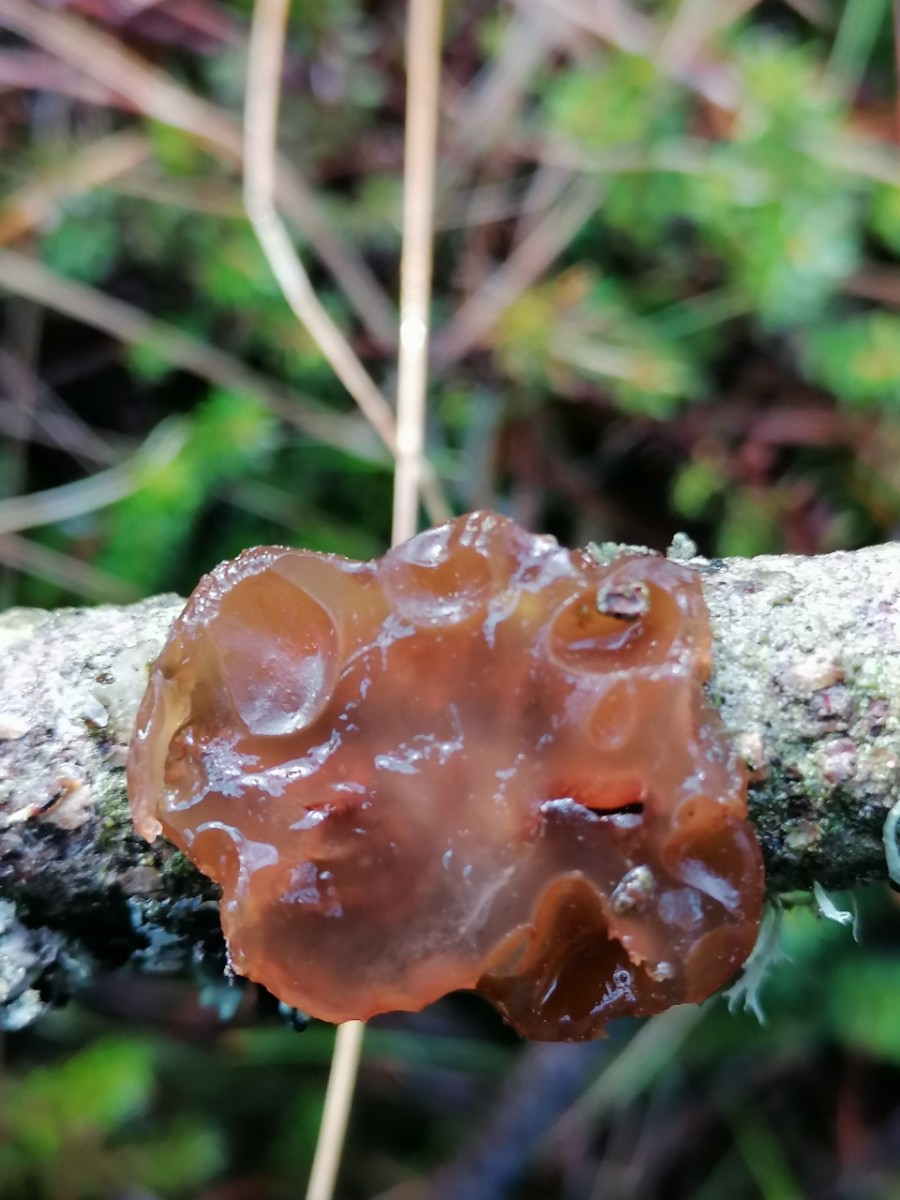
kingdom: Fungi
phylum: Basidiomycota
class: Agaricomycetes
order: Auriculariales
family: Auriculariaceae
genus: Exidia
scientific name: Exidia saccharina
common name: kandis-bævretop
